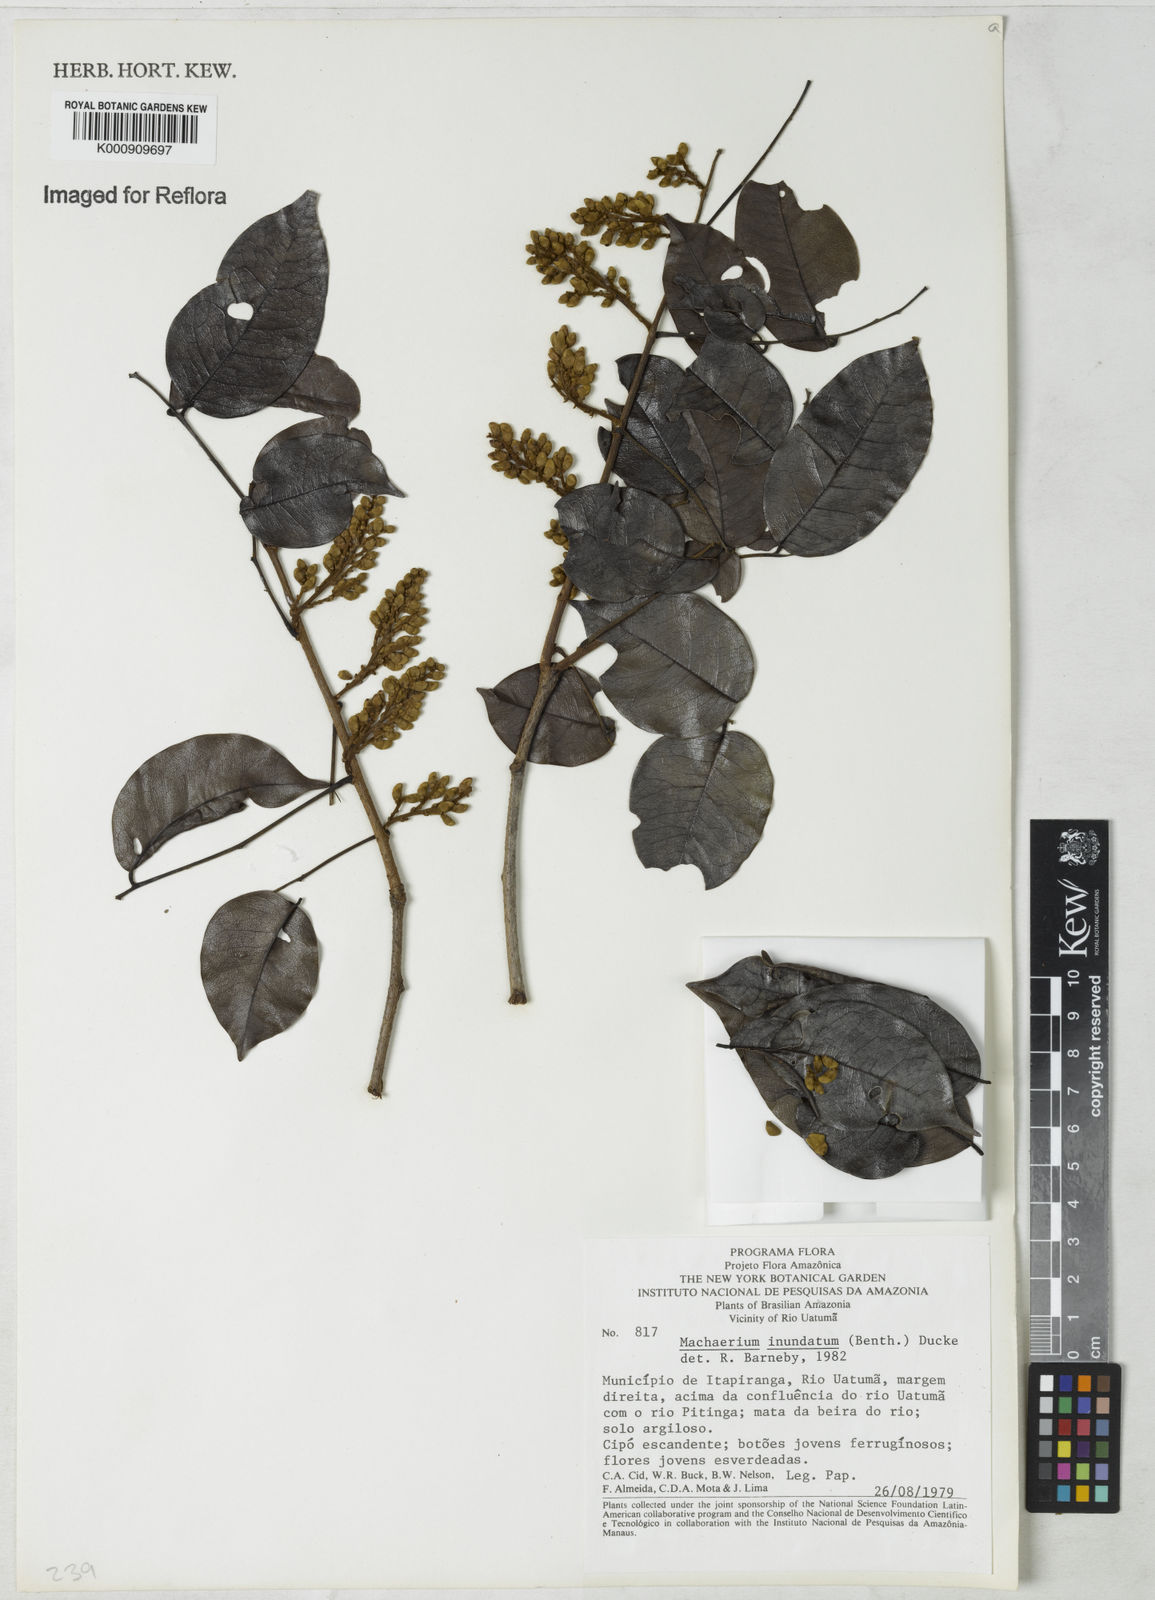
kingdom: Plantae
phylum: Tracheophyta
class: Magnoliopsida
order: Fabales
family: Fabaceae
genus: Machaerium
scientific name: Machaerium inundatum
